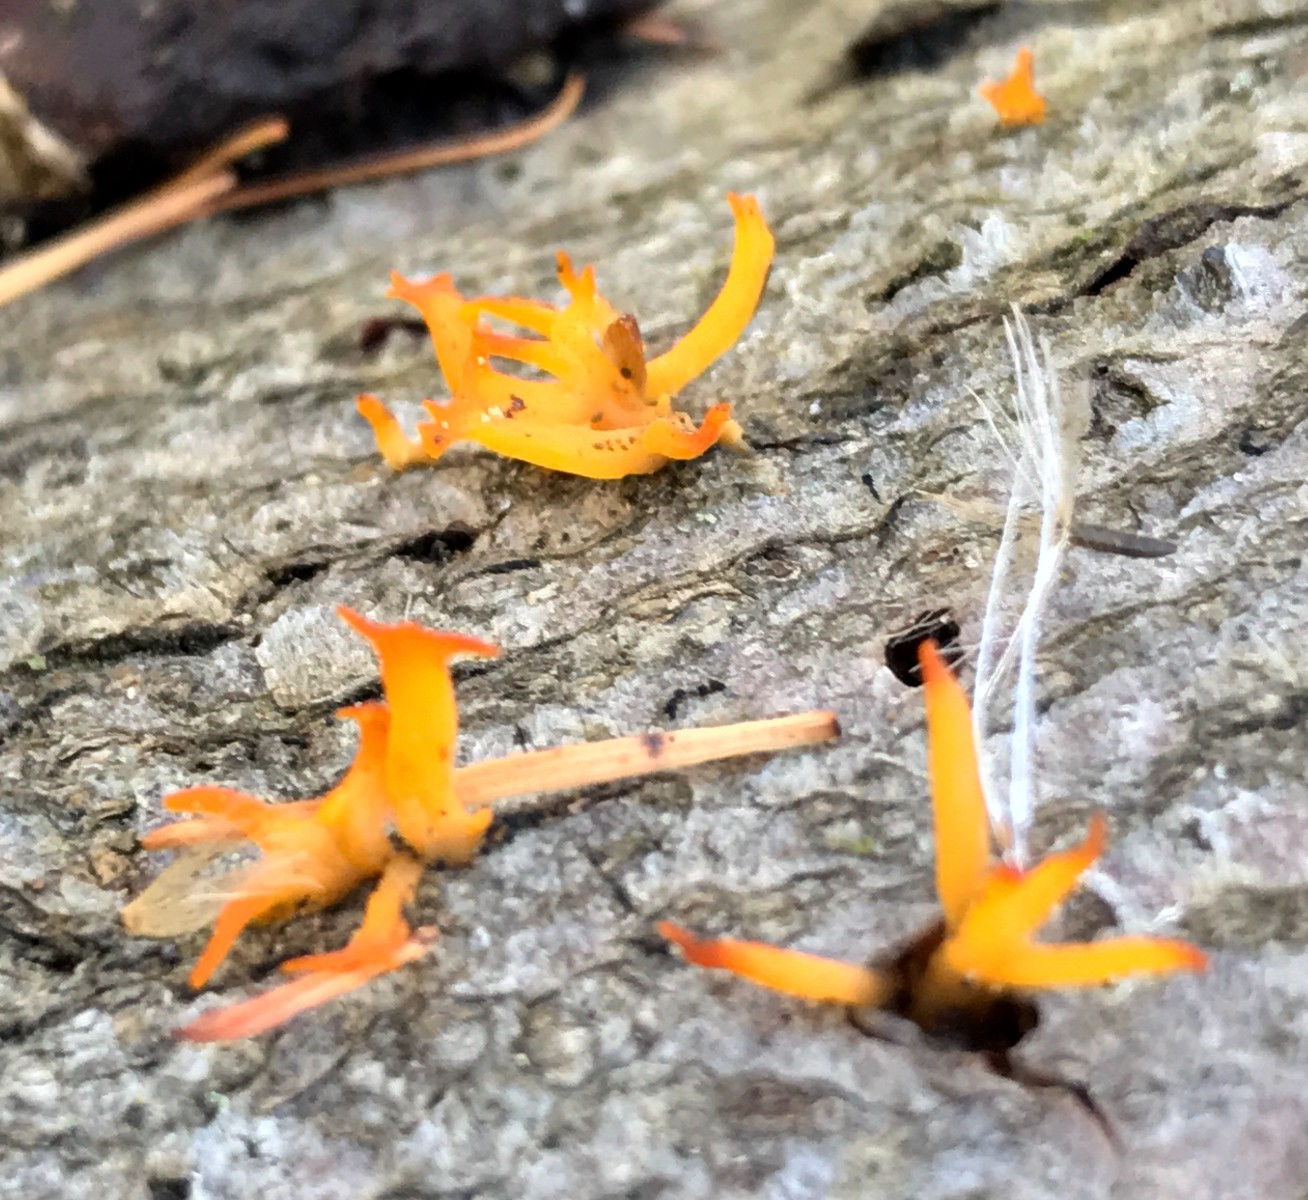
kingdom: Fungi
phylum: Basidiomycota
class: Dacrymycetes
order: Dacrymycetales
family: Dacrymycetaceae
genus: Calocera
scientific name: Calocera cornea
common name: liden guldgaffel
